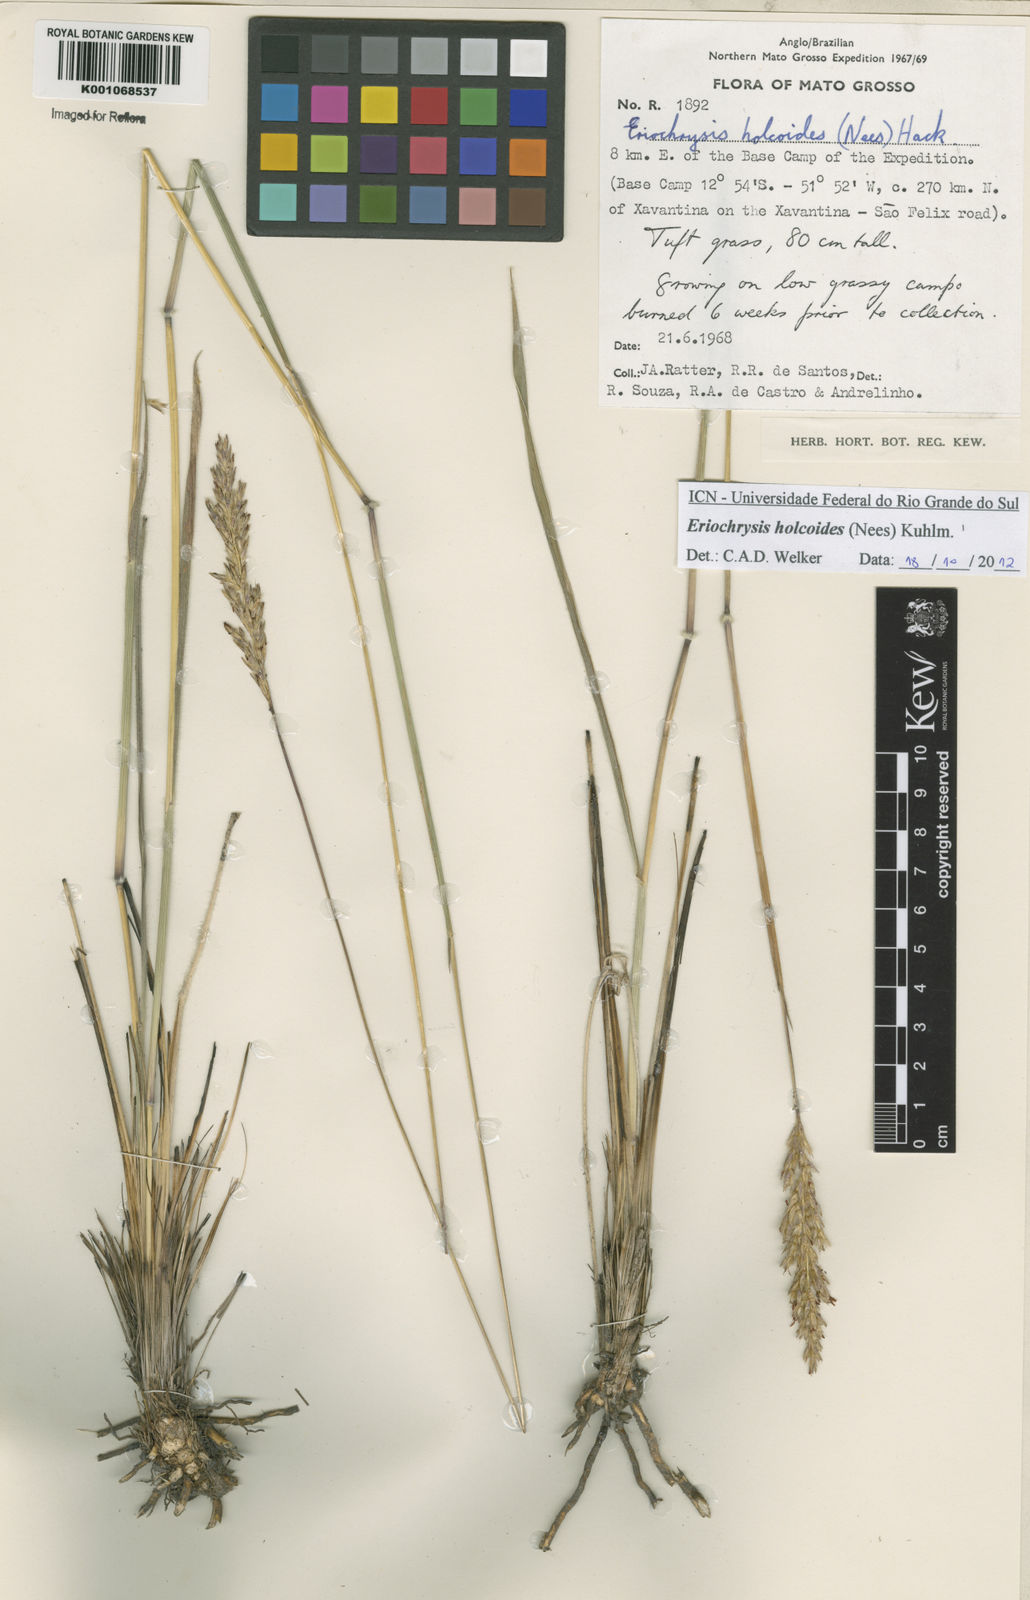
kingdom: Plantae
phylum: Tracheophyta
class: Liliopsida
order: Poales
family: Poaceae
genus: Eriochrysis
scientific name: Eriochrysis holcoides
